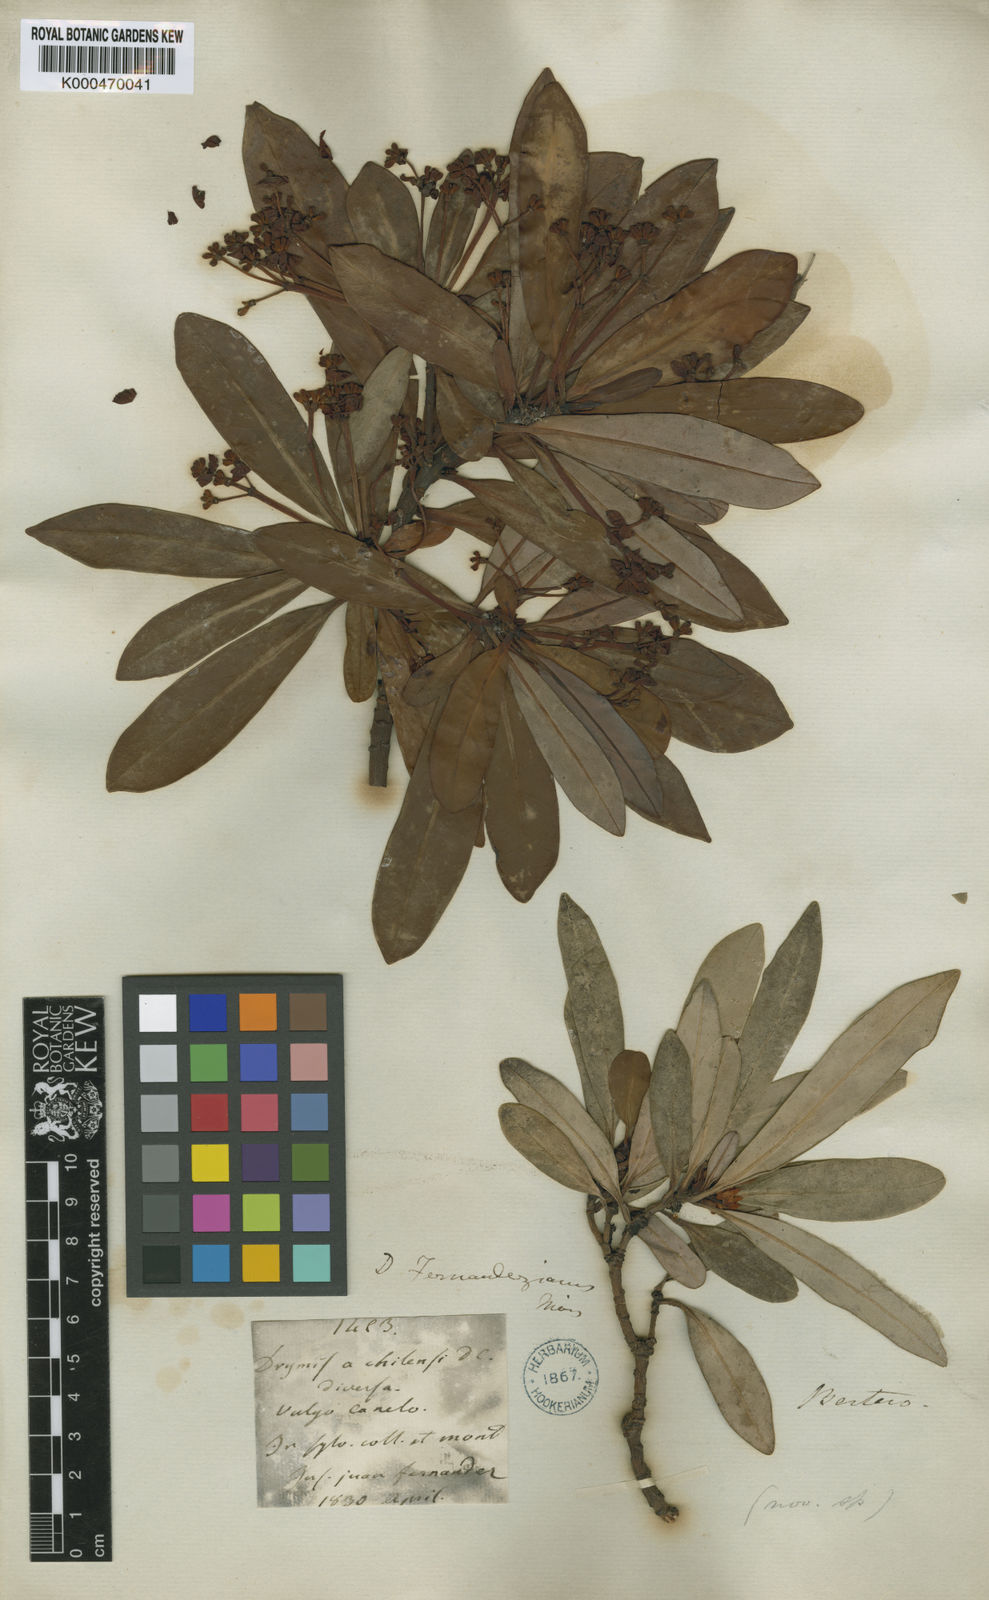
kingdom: Plantae
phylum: Tracheophyta
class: Magnoliopsida
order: Canellales
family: Winteraceae
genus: Drimys
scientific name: Drimys confertiflora
